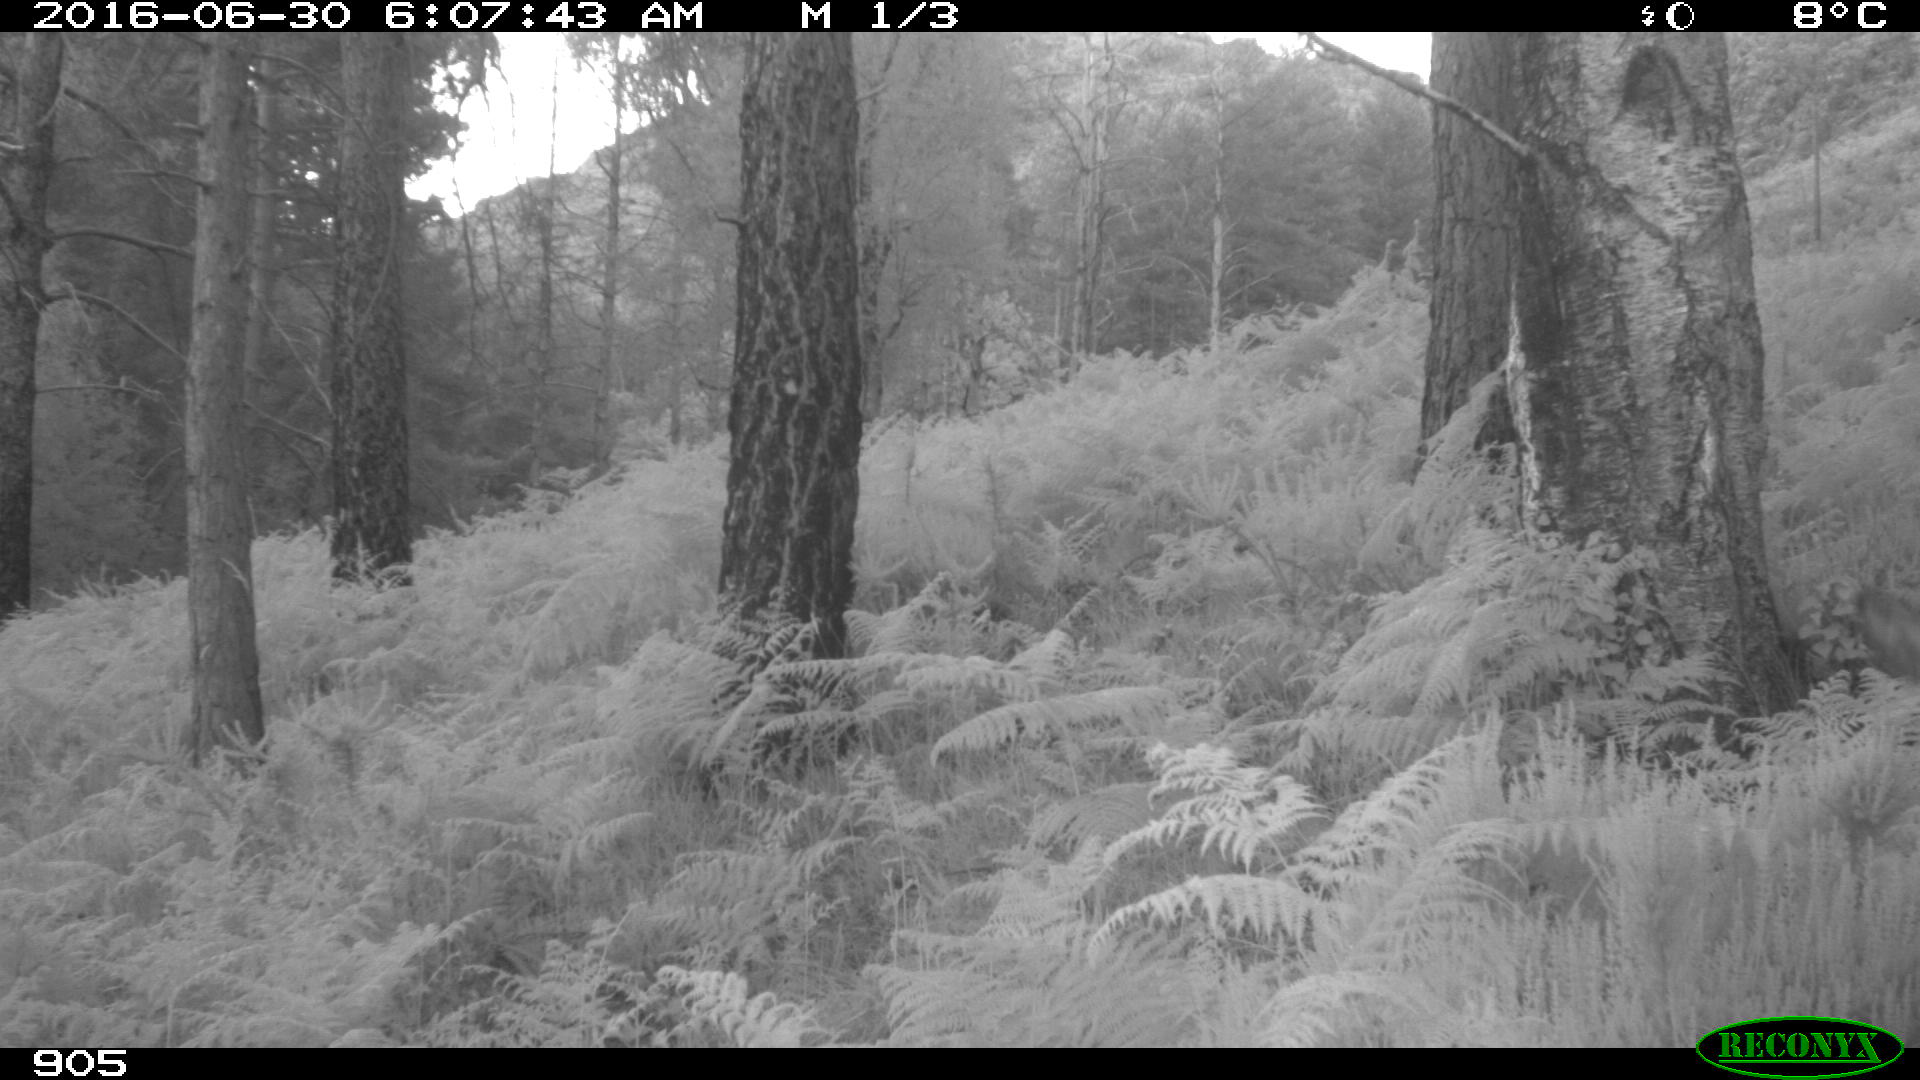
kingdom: Animalia
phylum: Chordata
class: Mammalia
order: Artiodactyla
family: Cervidae
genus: Capreolus
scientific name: Capreolus capreolus
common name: Western roe deer
